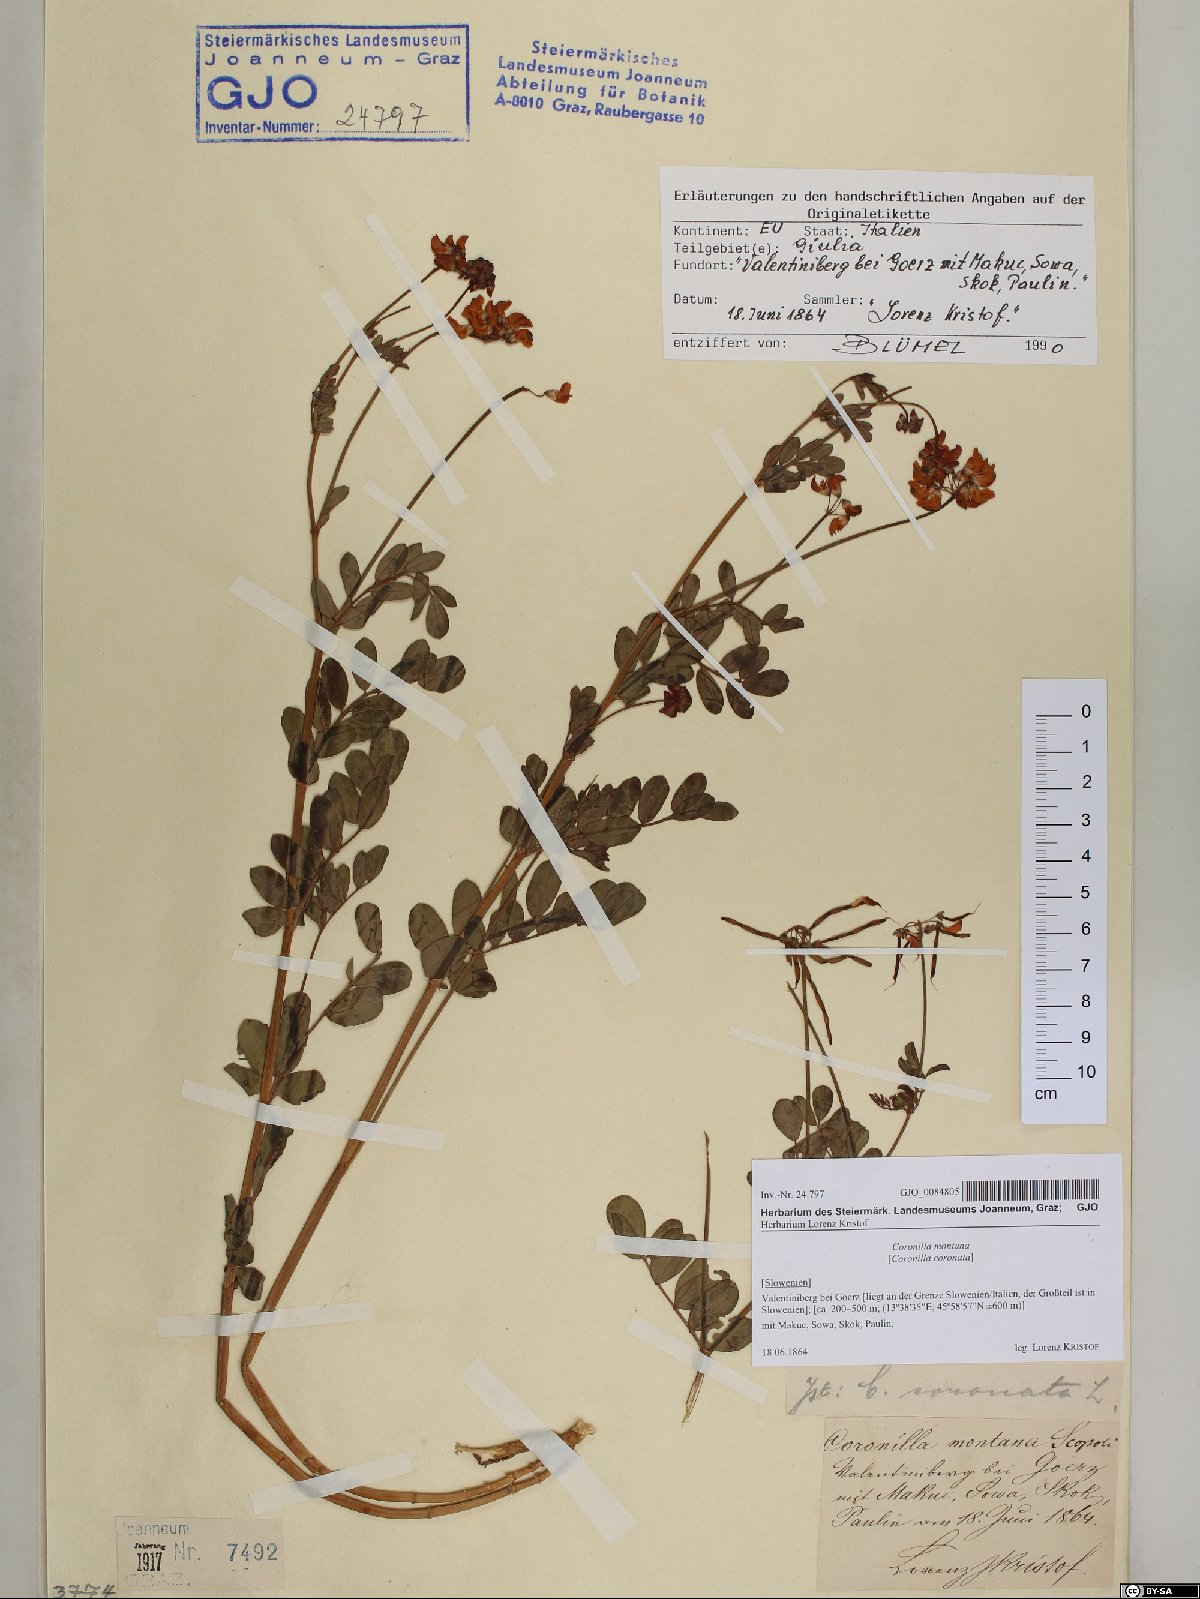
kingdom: Plantae
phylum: Tracheophyta
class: Magnoliopsida
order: Fabales
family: Fabaceae
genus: Coronilla
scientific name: Coronilla coronata
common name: Scorpion-vetch
